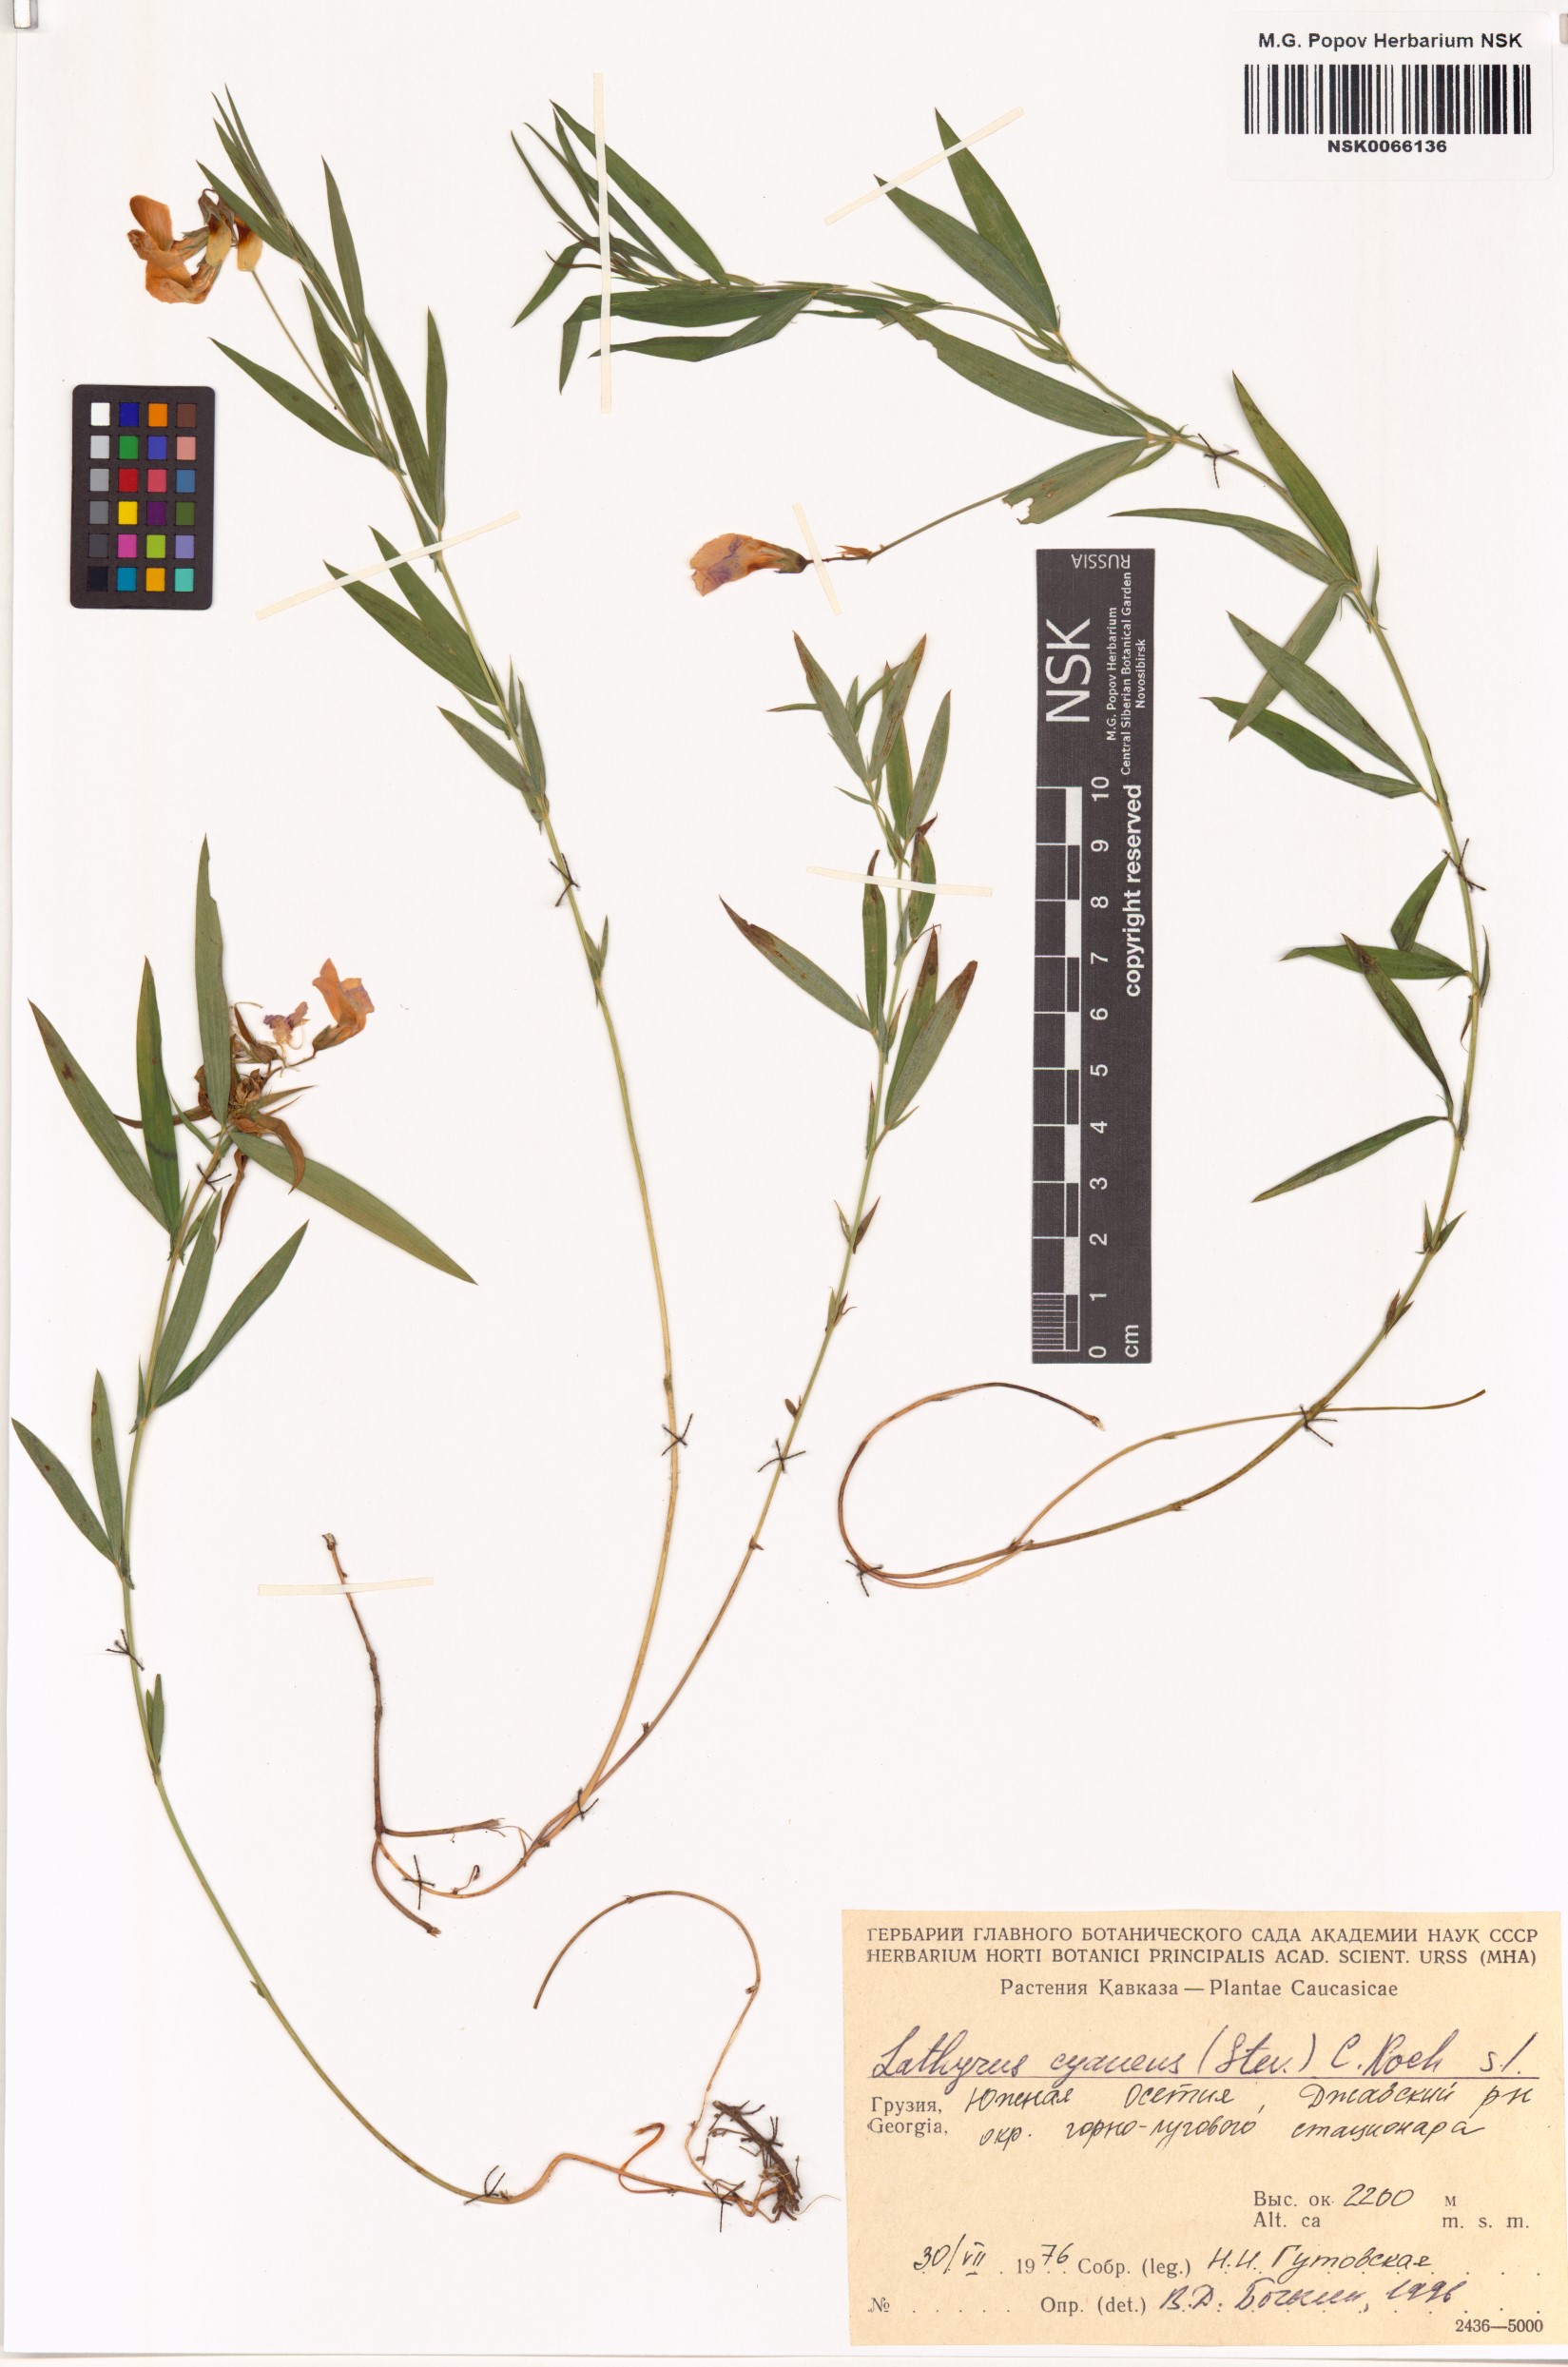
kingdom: Plantae
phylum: Tracheophyta
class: Magnoliopsida
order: Fabales
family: Fabaceae
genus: Lathyrus
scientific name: Lathyrus cyaneus
